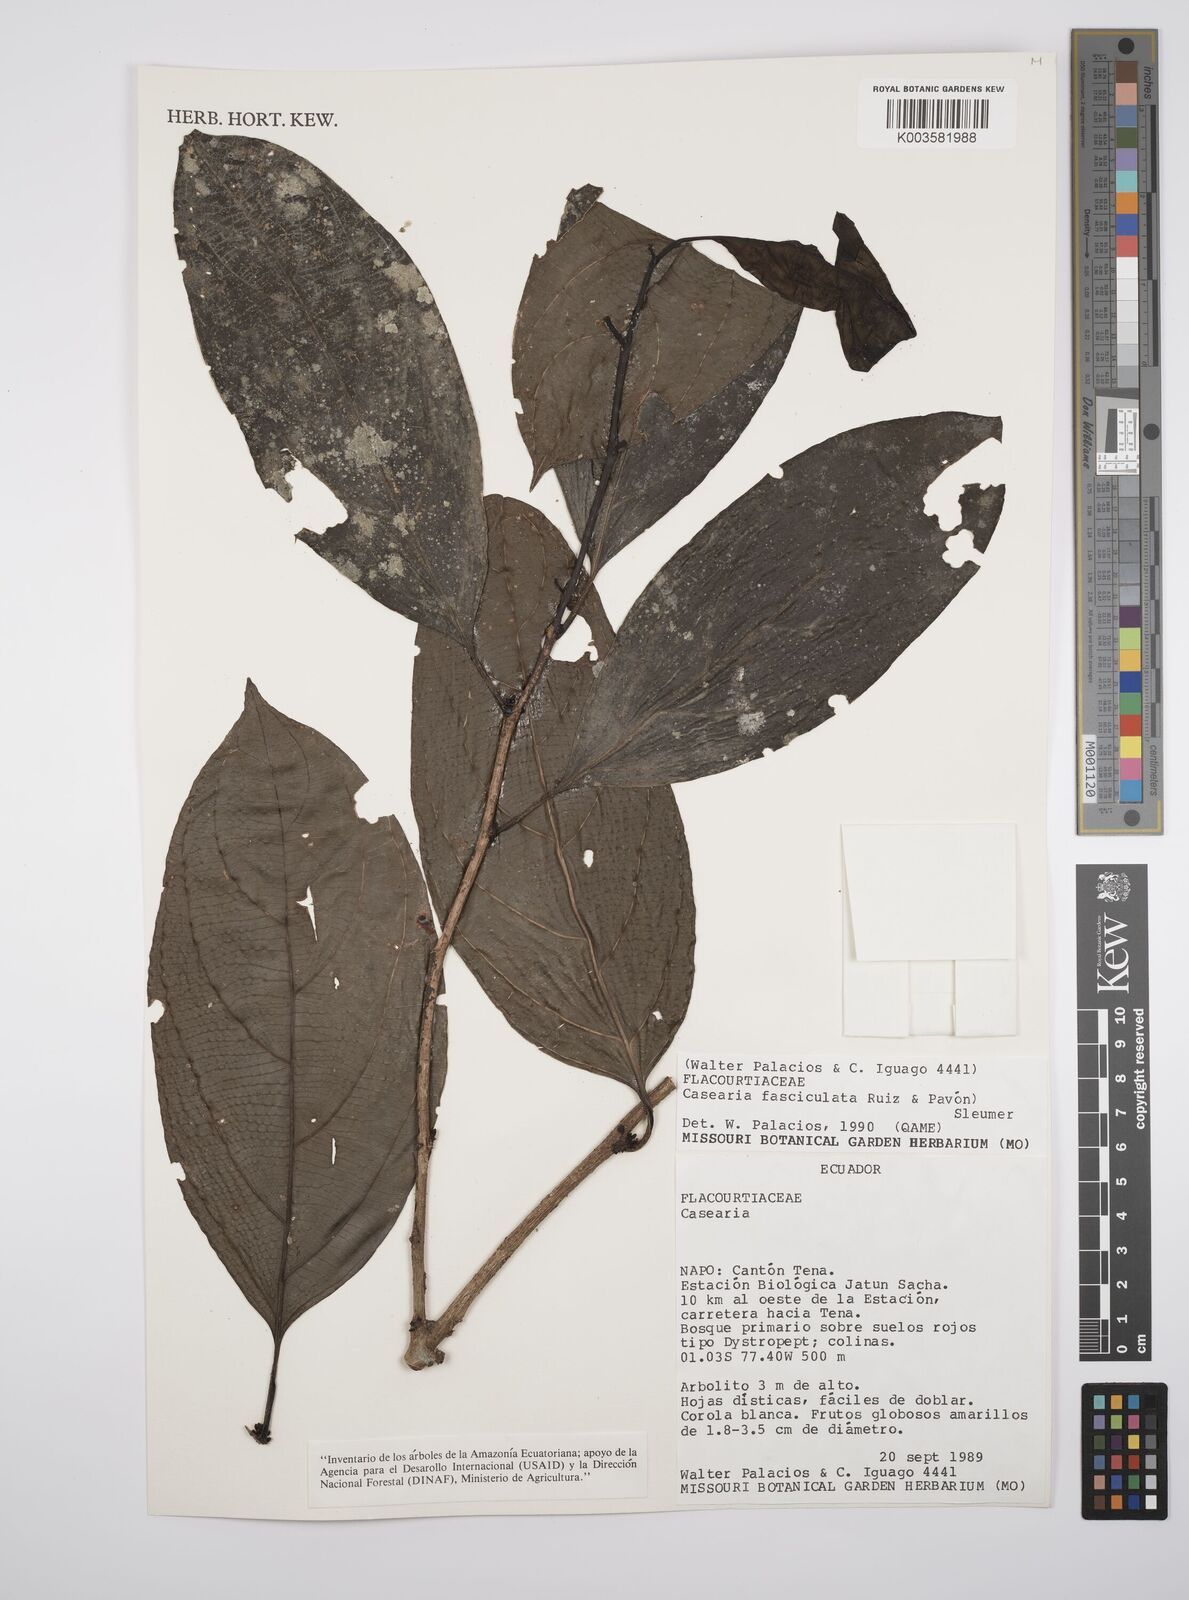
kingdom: Plantae
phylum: Tracheophyta
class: Magnoliopsida
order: Malpighiales
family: Salicaceae
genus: Casearia
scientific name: Casearia
